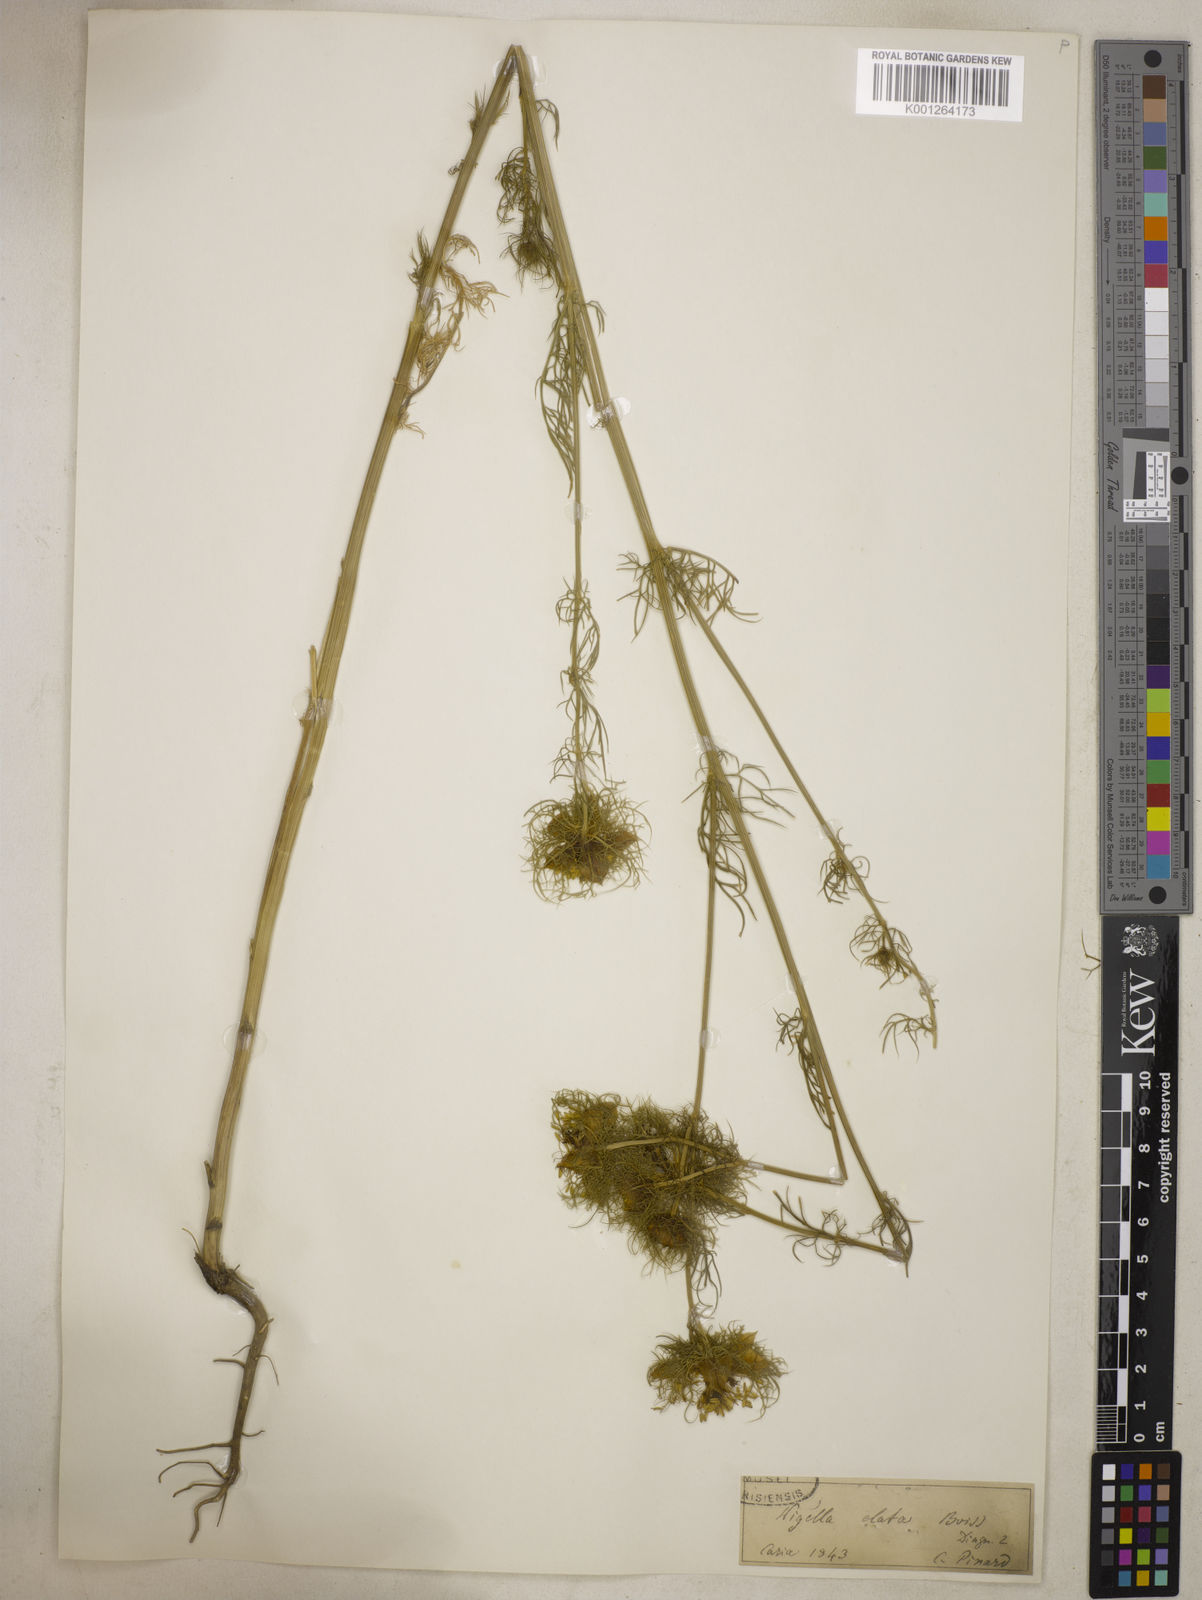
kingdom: Plantae
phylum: Tracheophyta
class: Magnoliopsida
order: Ranunculales
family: Ranunculaceae
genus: Nigella
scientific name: Nigella elata
